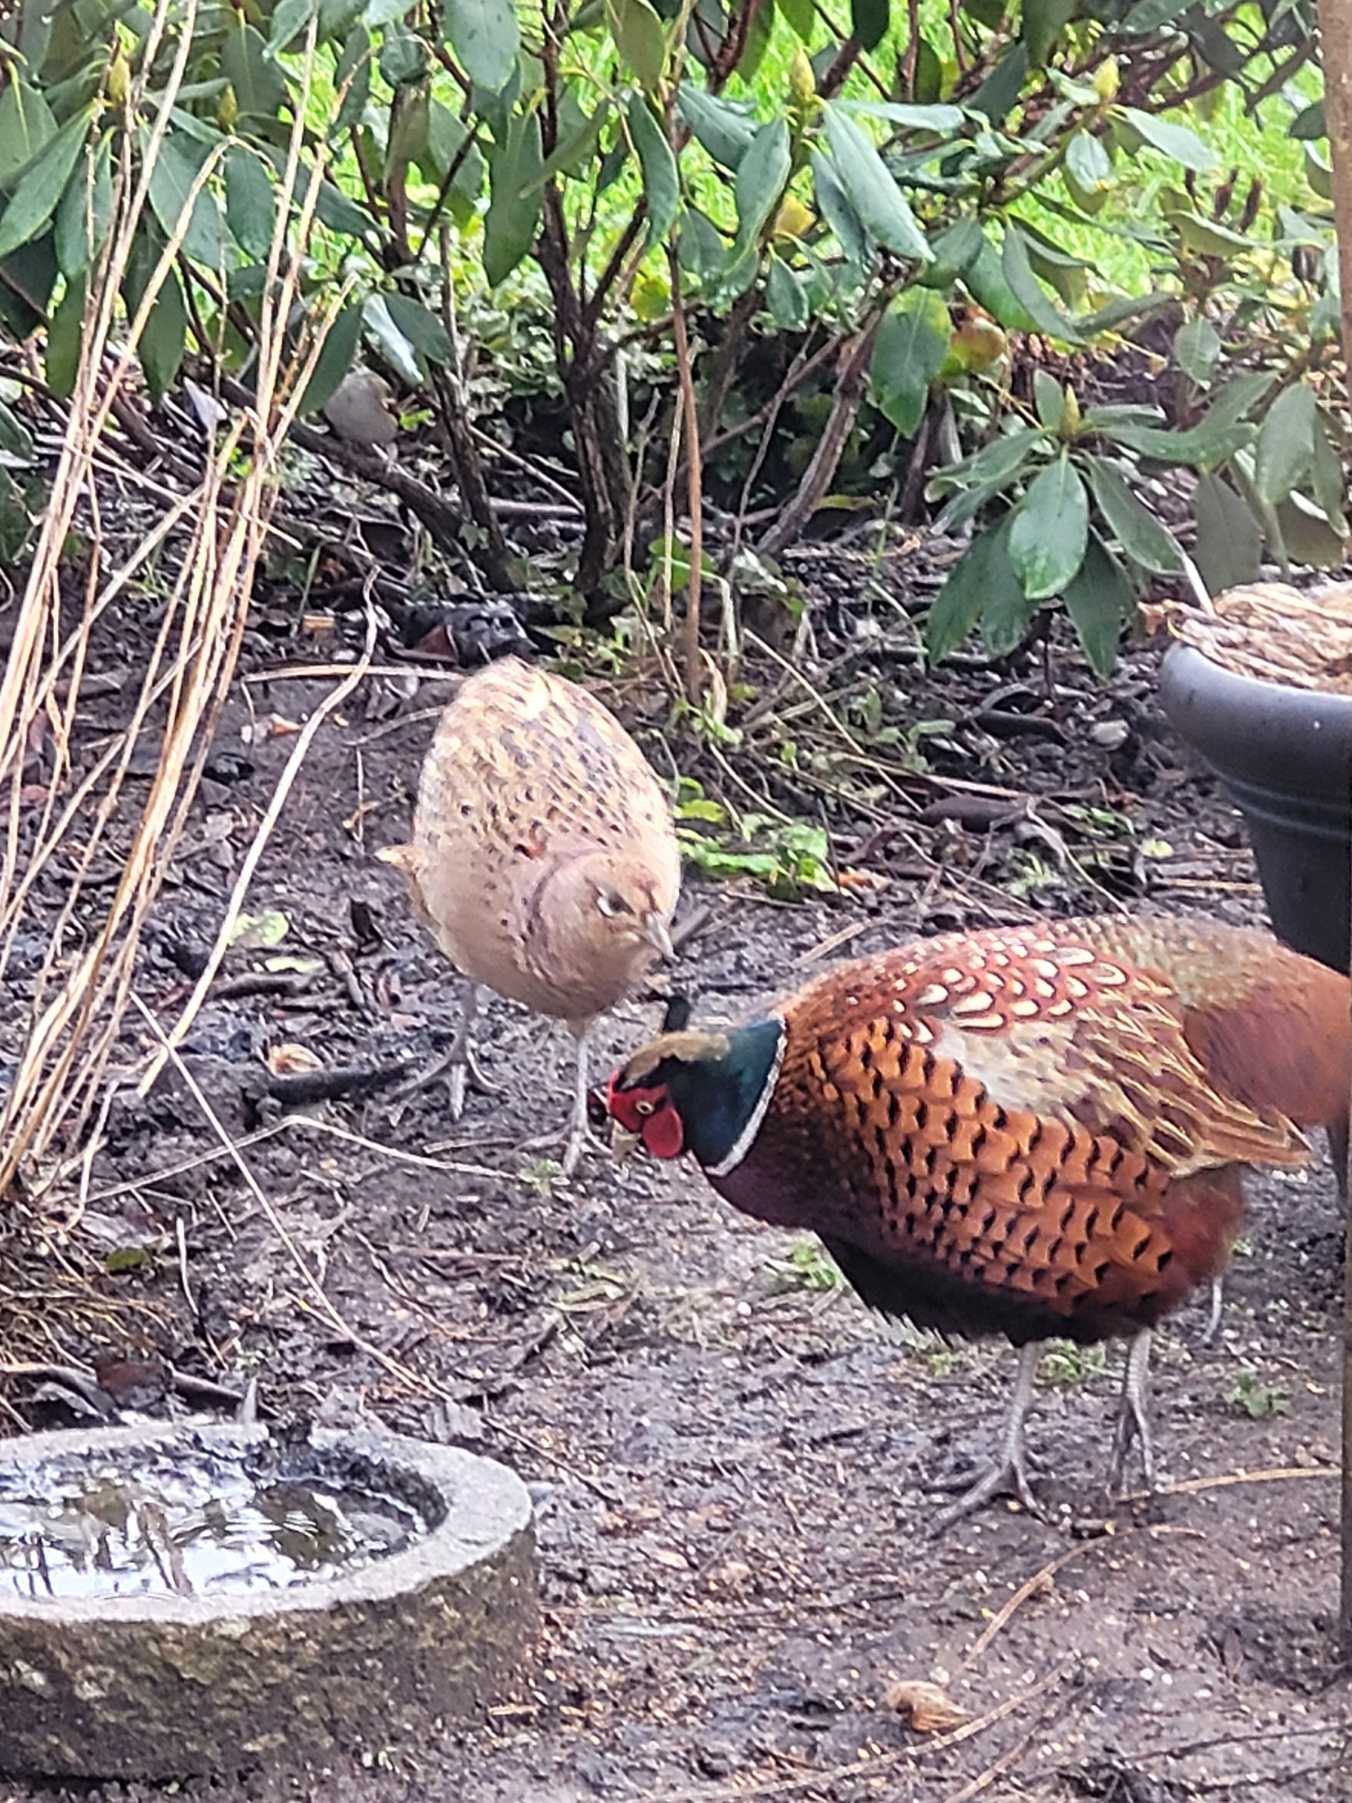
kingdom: Animalia
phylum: Chordata
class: Aves
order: Galliformes
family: Phasianidae
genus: Phasianus
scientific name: Phasianus colchicus
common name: Fasan
